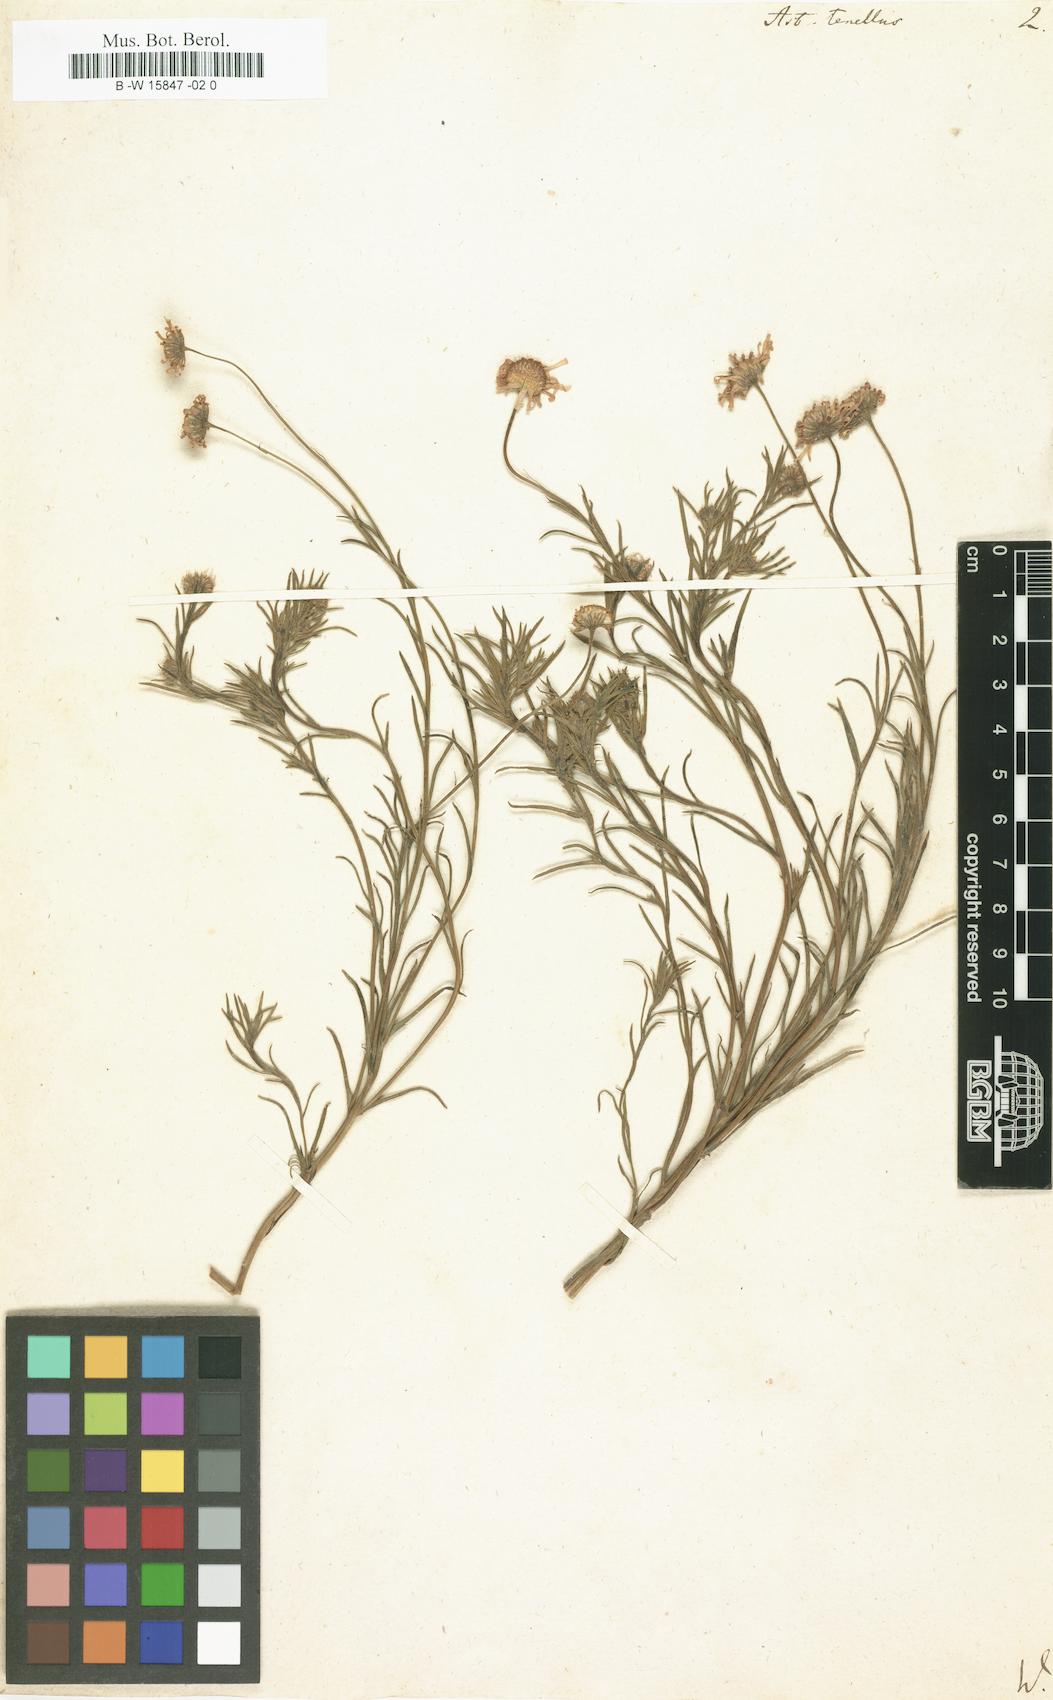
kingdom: Plantae
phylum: Tracheophyta
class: Magnoliopsida
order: Asterales
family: Asteraceae
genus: Aster
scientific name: Aster tenellus
